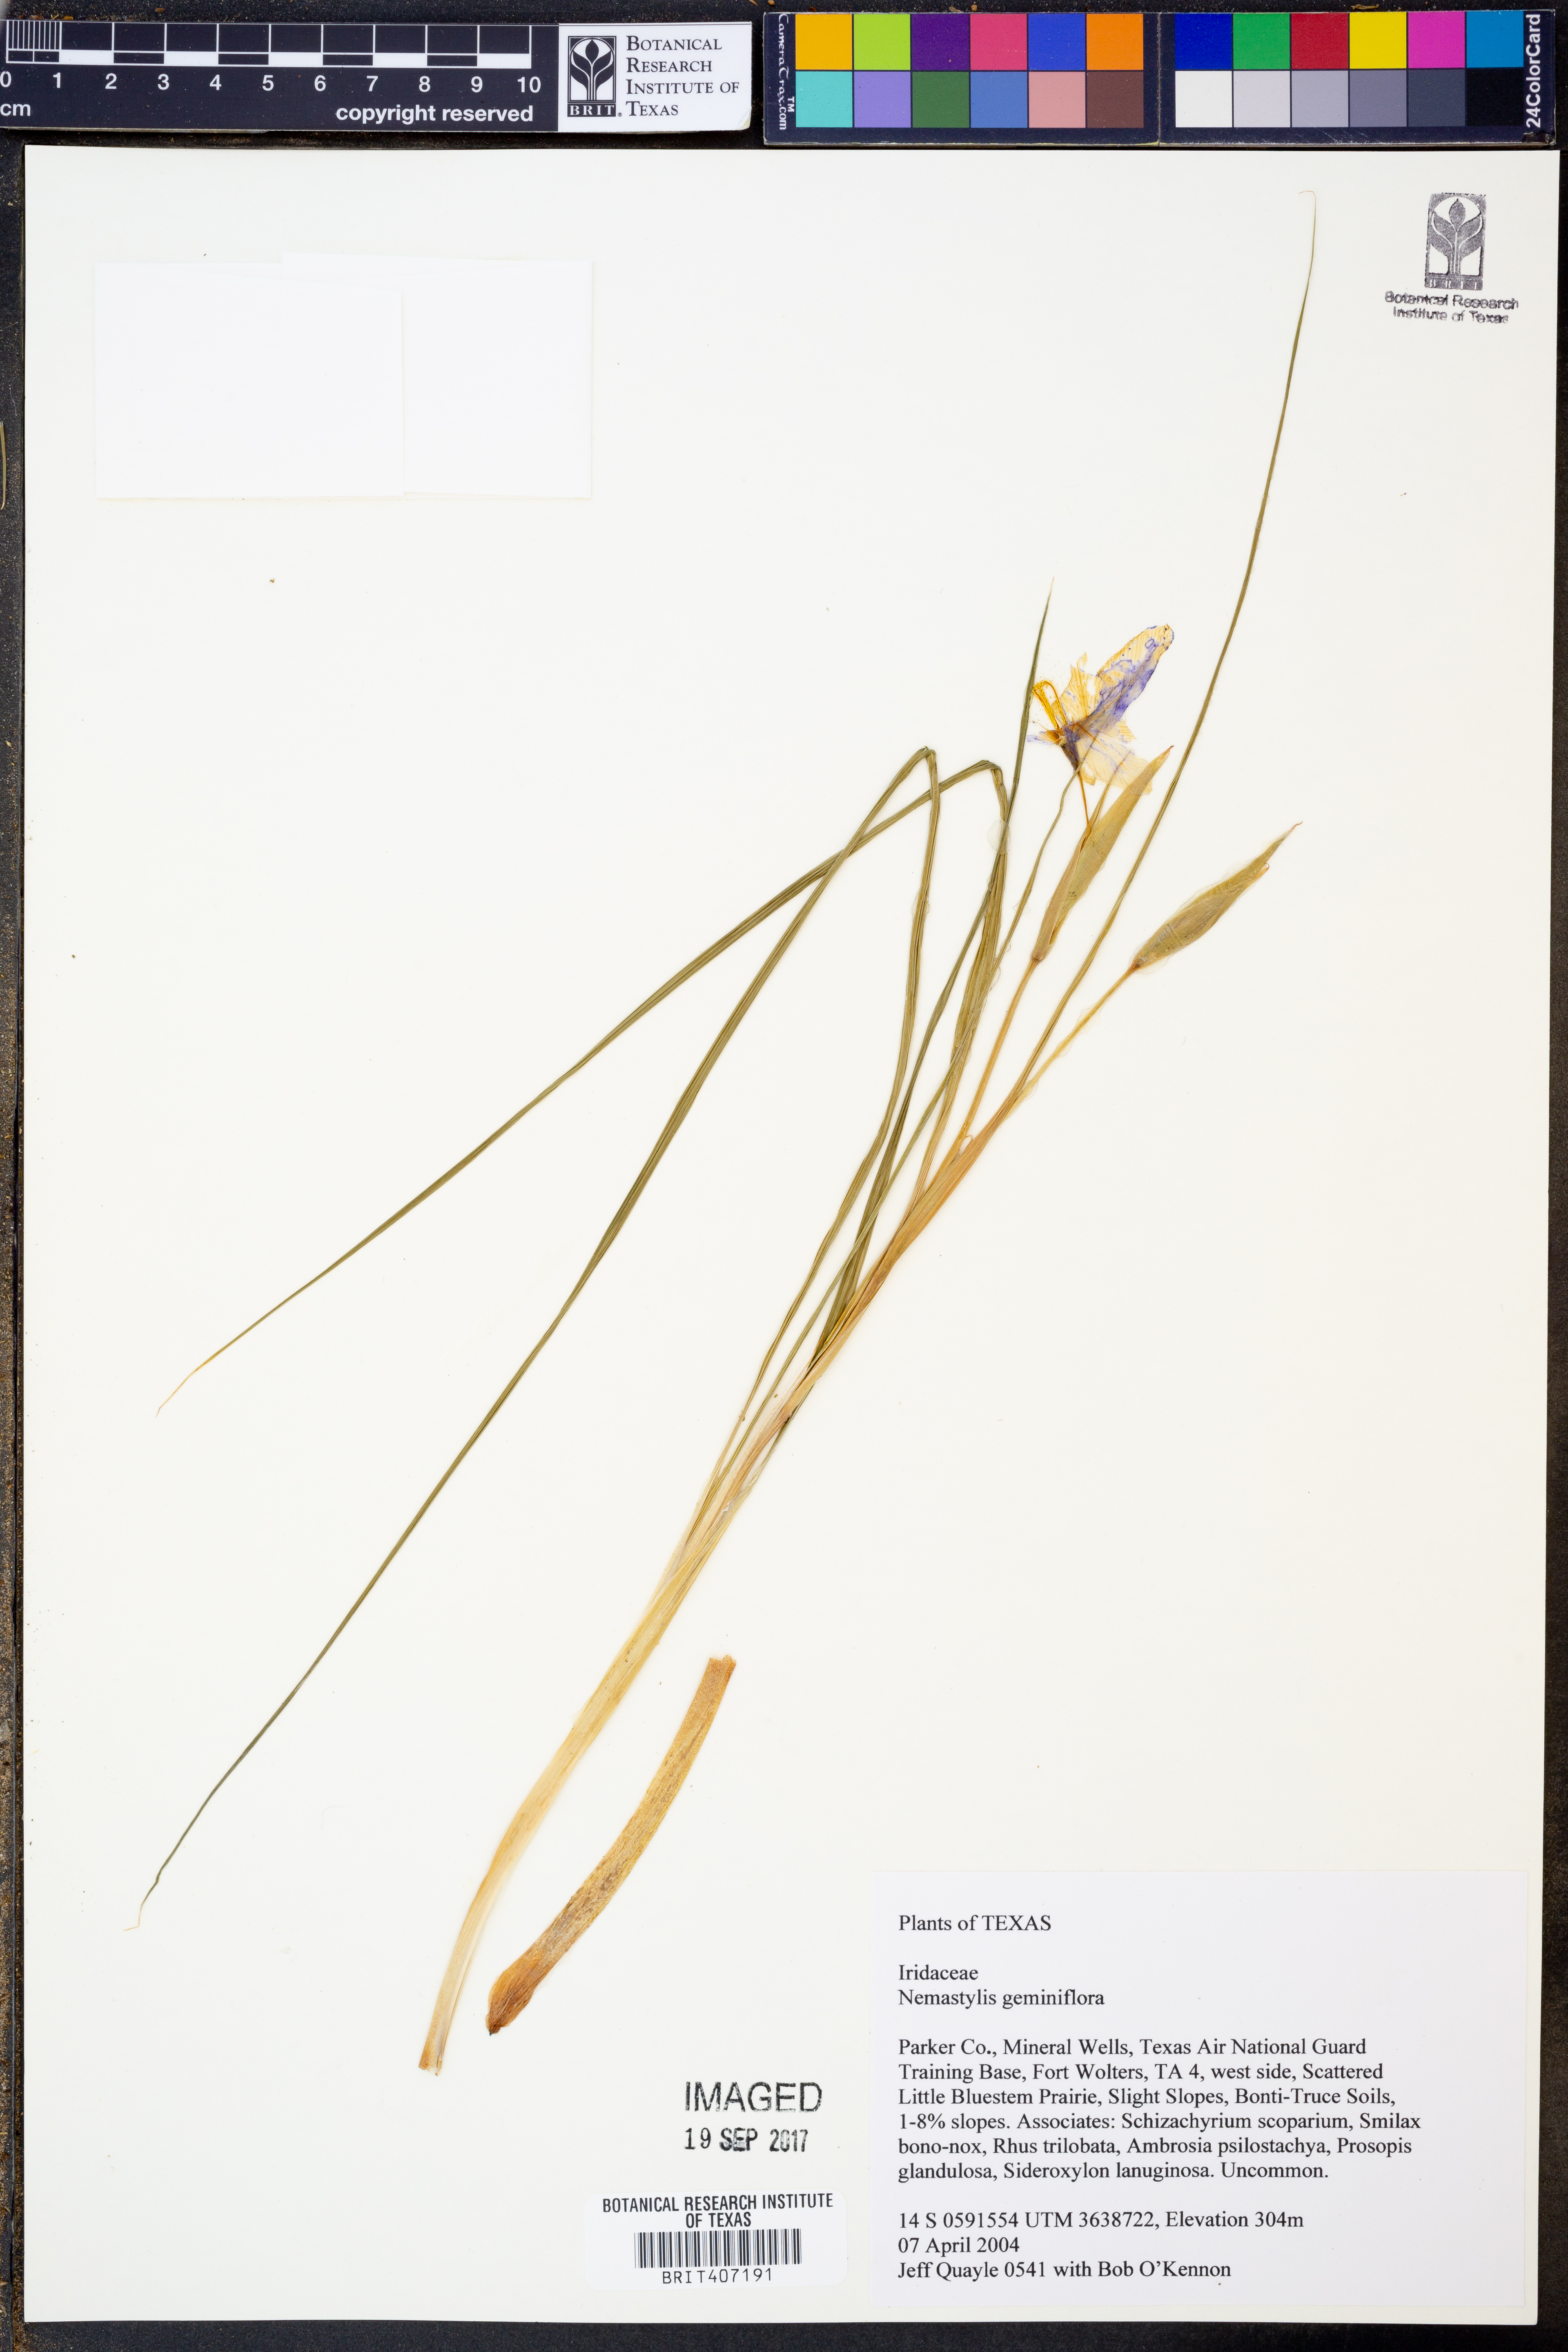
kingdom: Plantae
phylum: Tracheophyta
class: Liliopsida
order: Asparagales
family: Iridaceae
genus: Nemastylis
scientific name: Nemastylis geminiflora
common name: Prairie celestial
